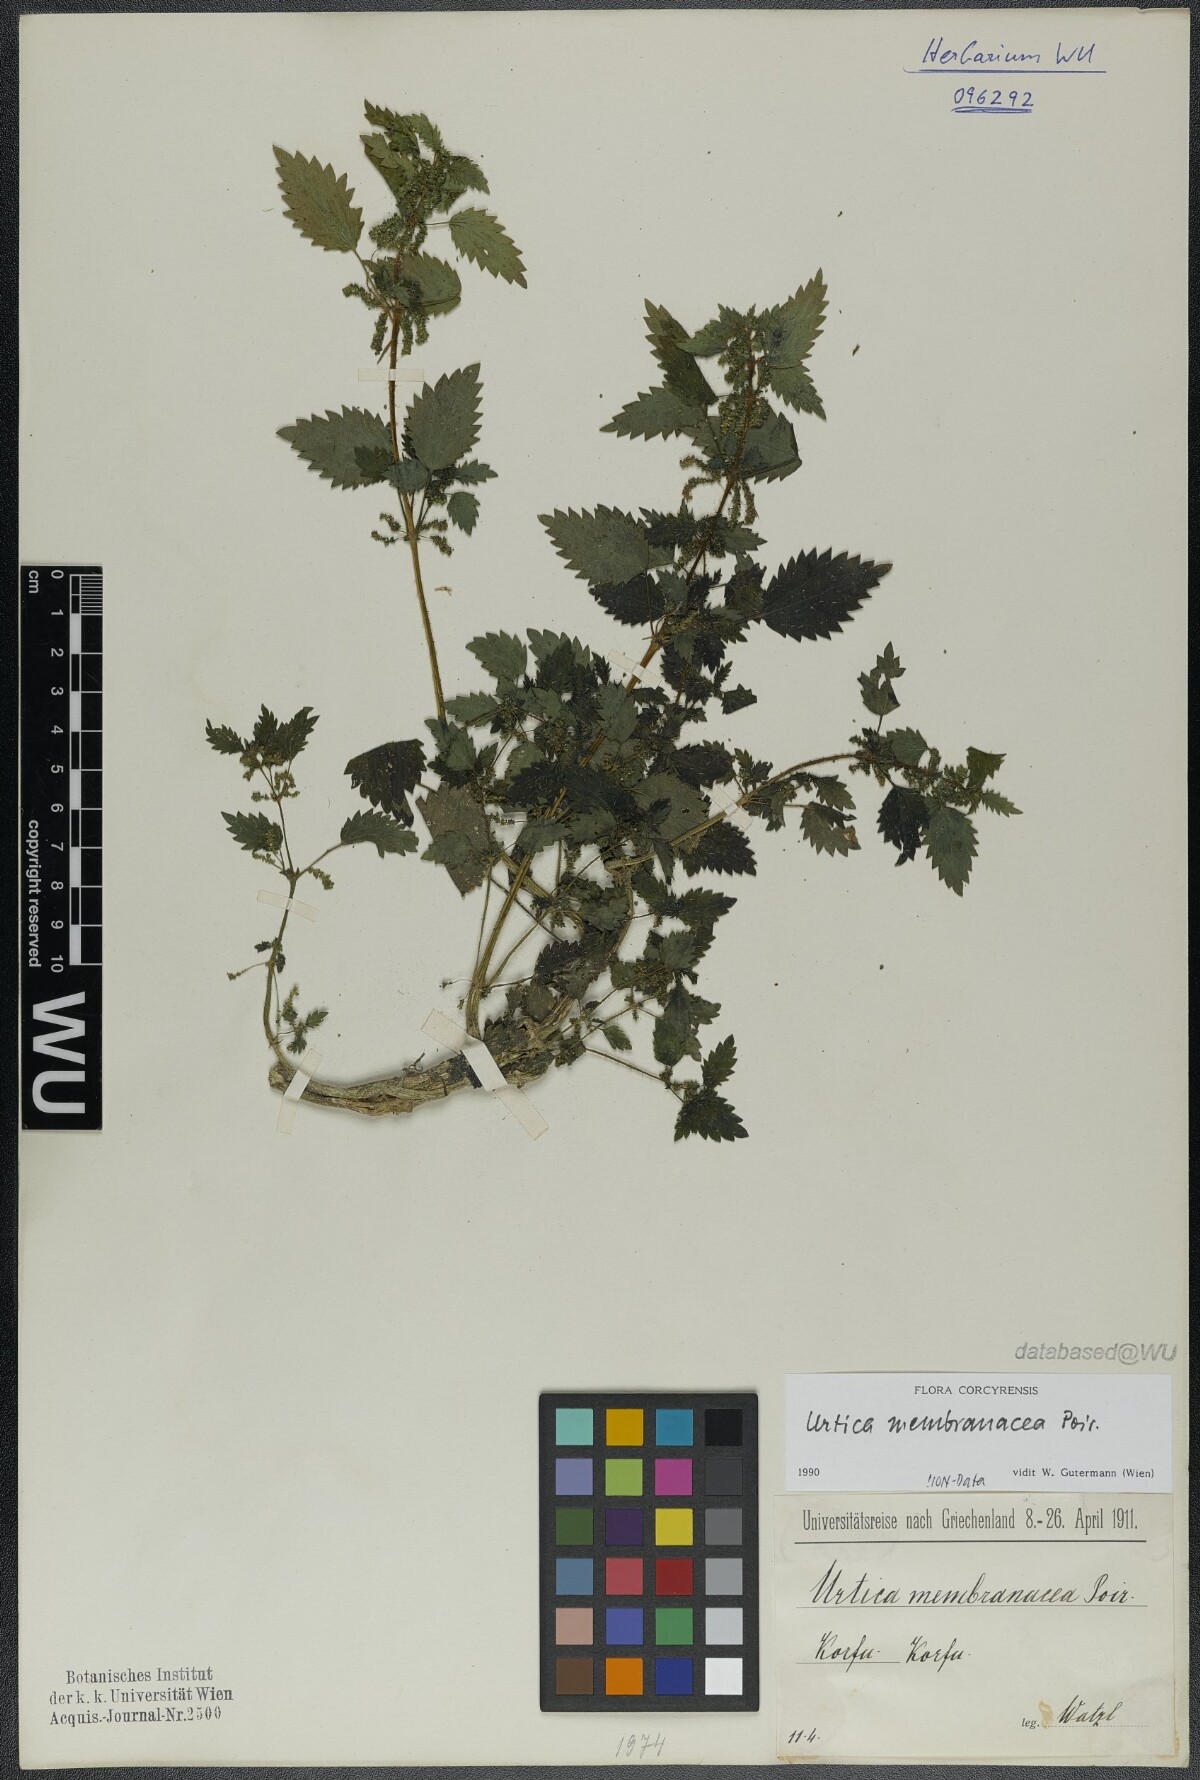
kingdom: Plantae
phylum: Tracheophyta
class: Magnoliopsida
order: Rosales
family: Urticaceae
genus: Urtica
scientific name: Urtica membranacea
